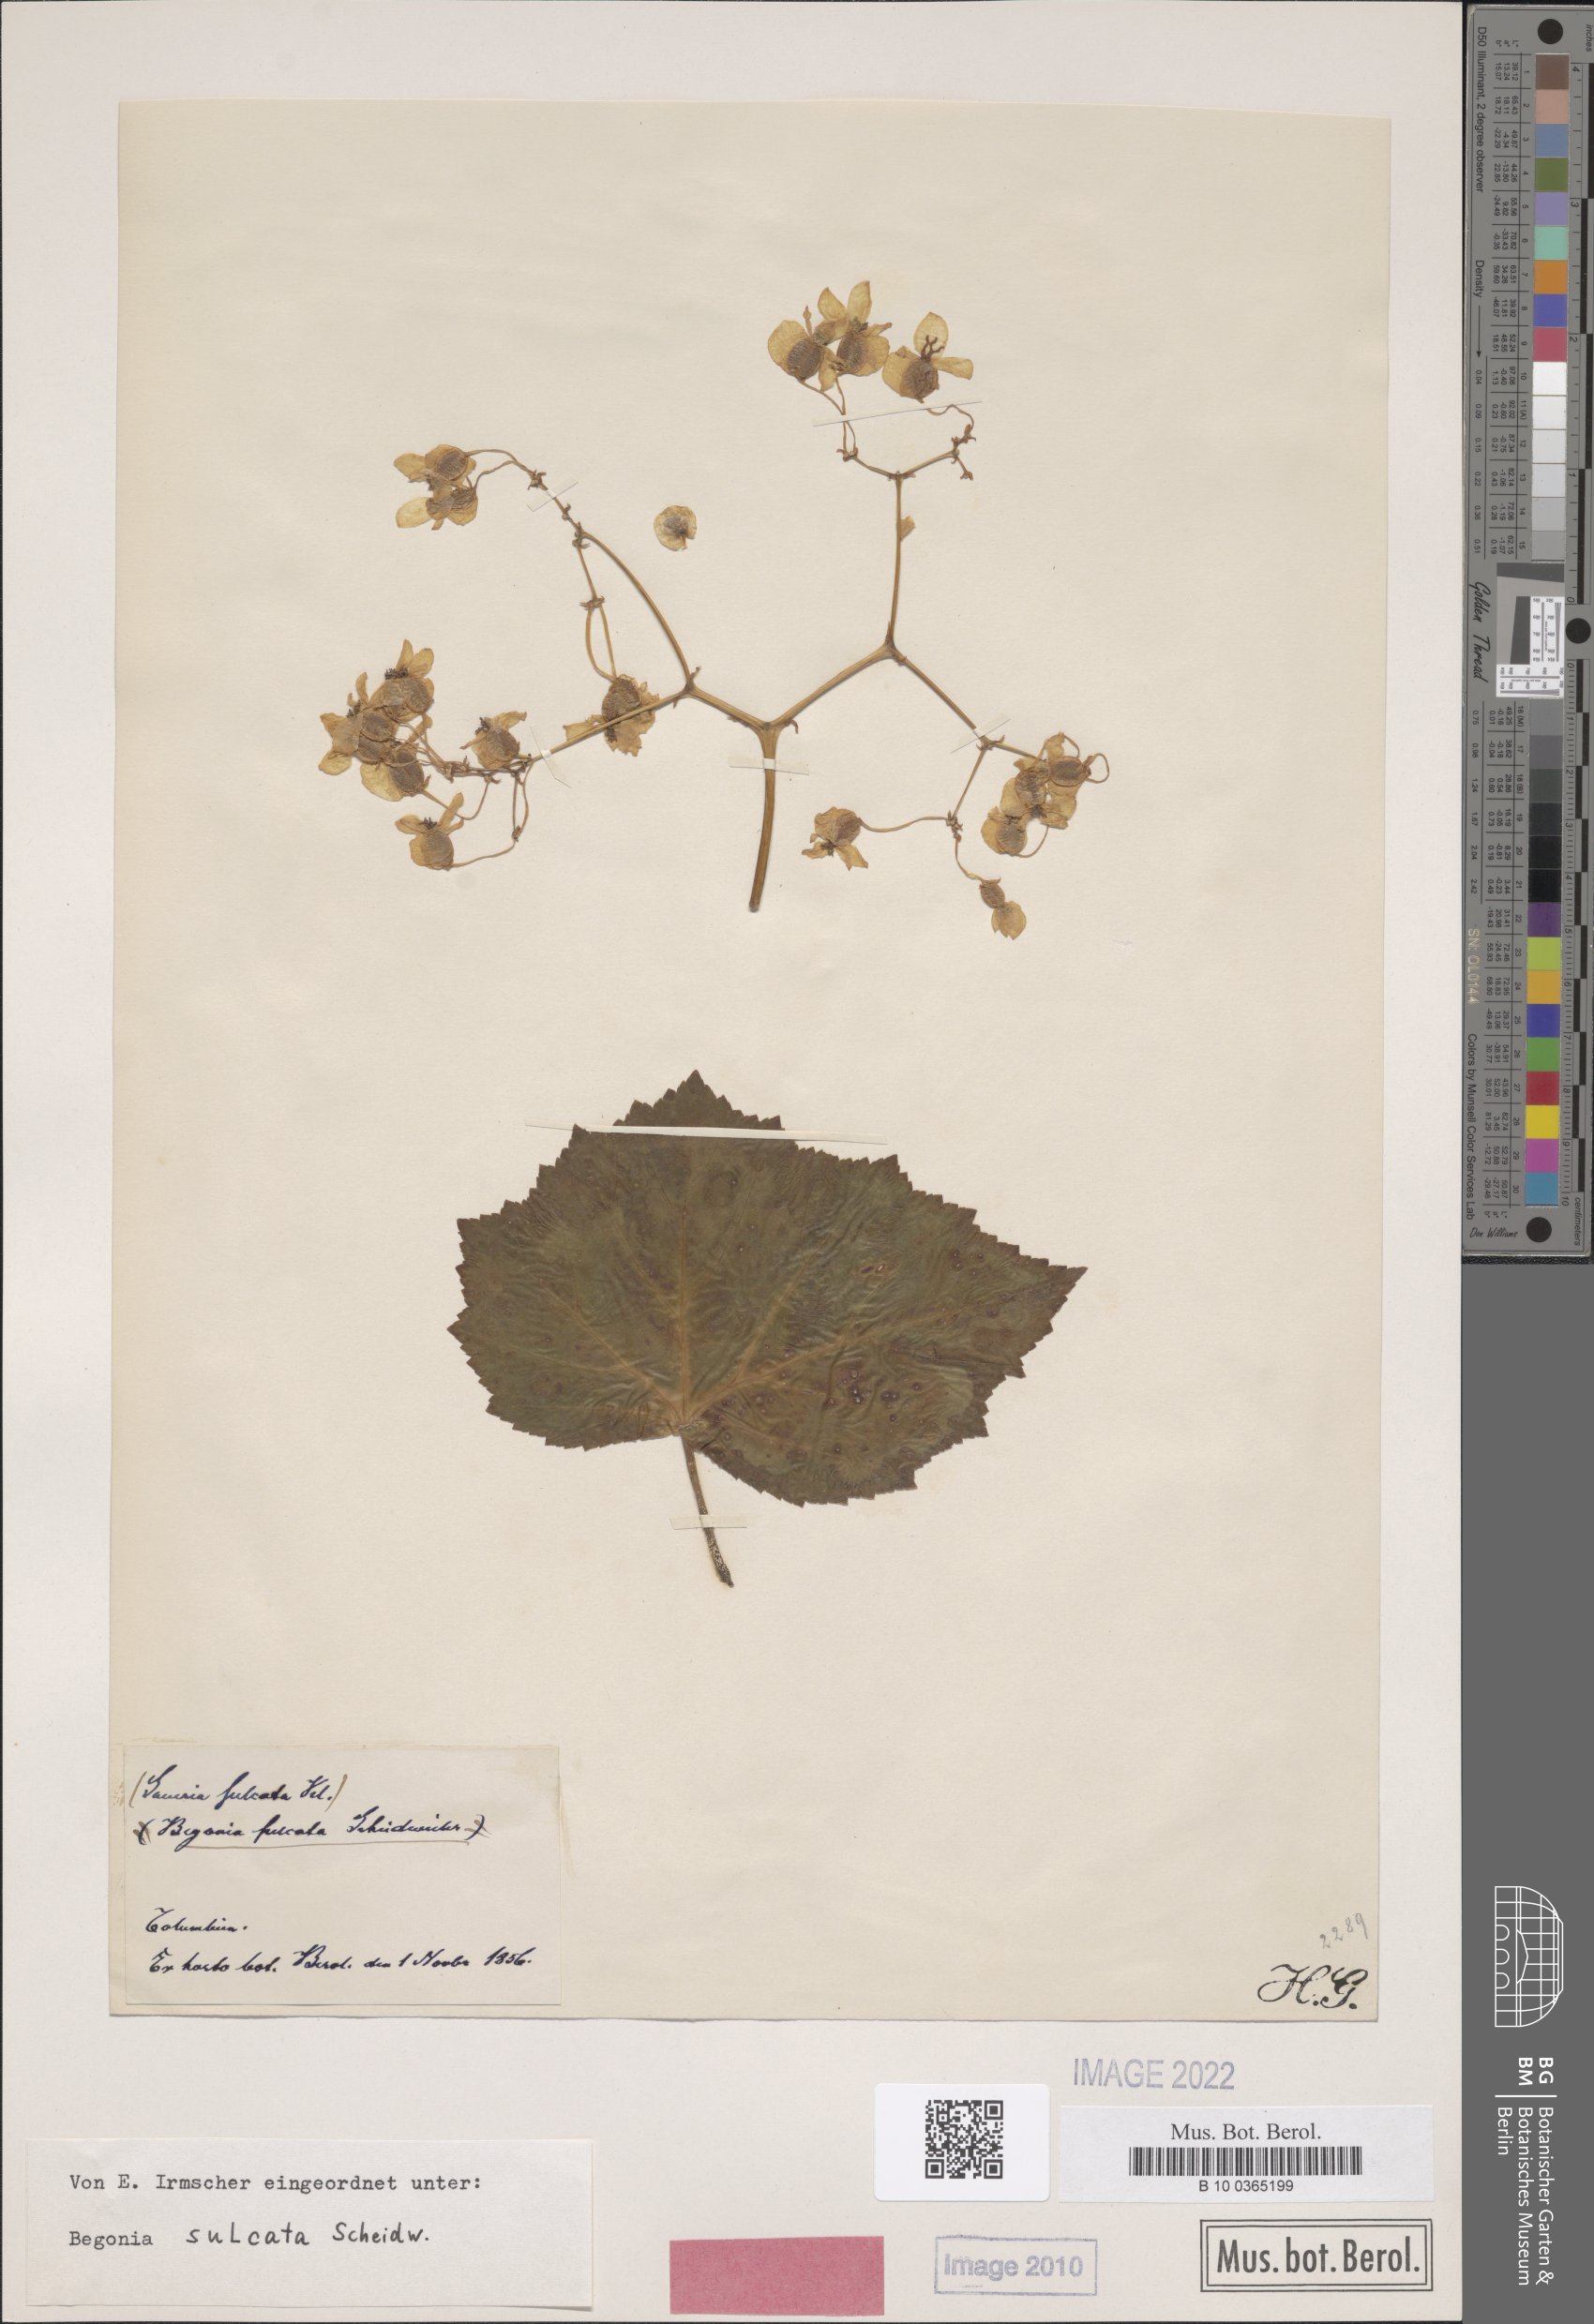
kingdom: Plantae
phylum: Tracheophyta
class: Magnoliopsida
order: Cucurbitales
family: Begoniaceae
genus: Begonia
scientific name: Begonia dichotoma
